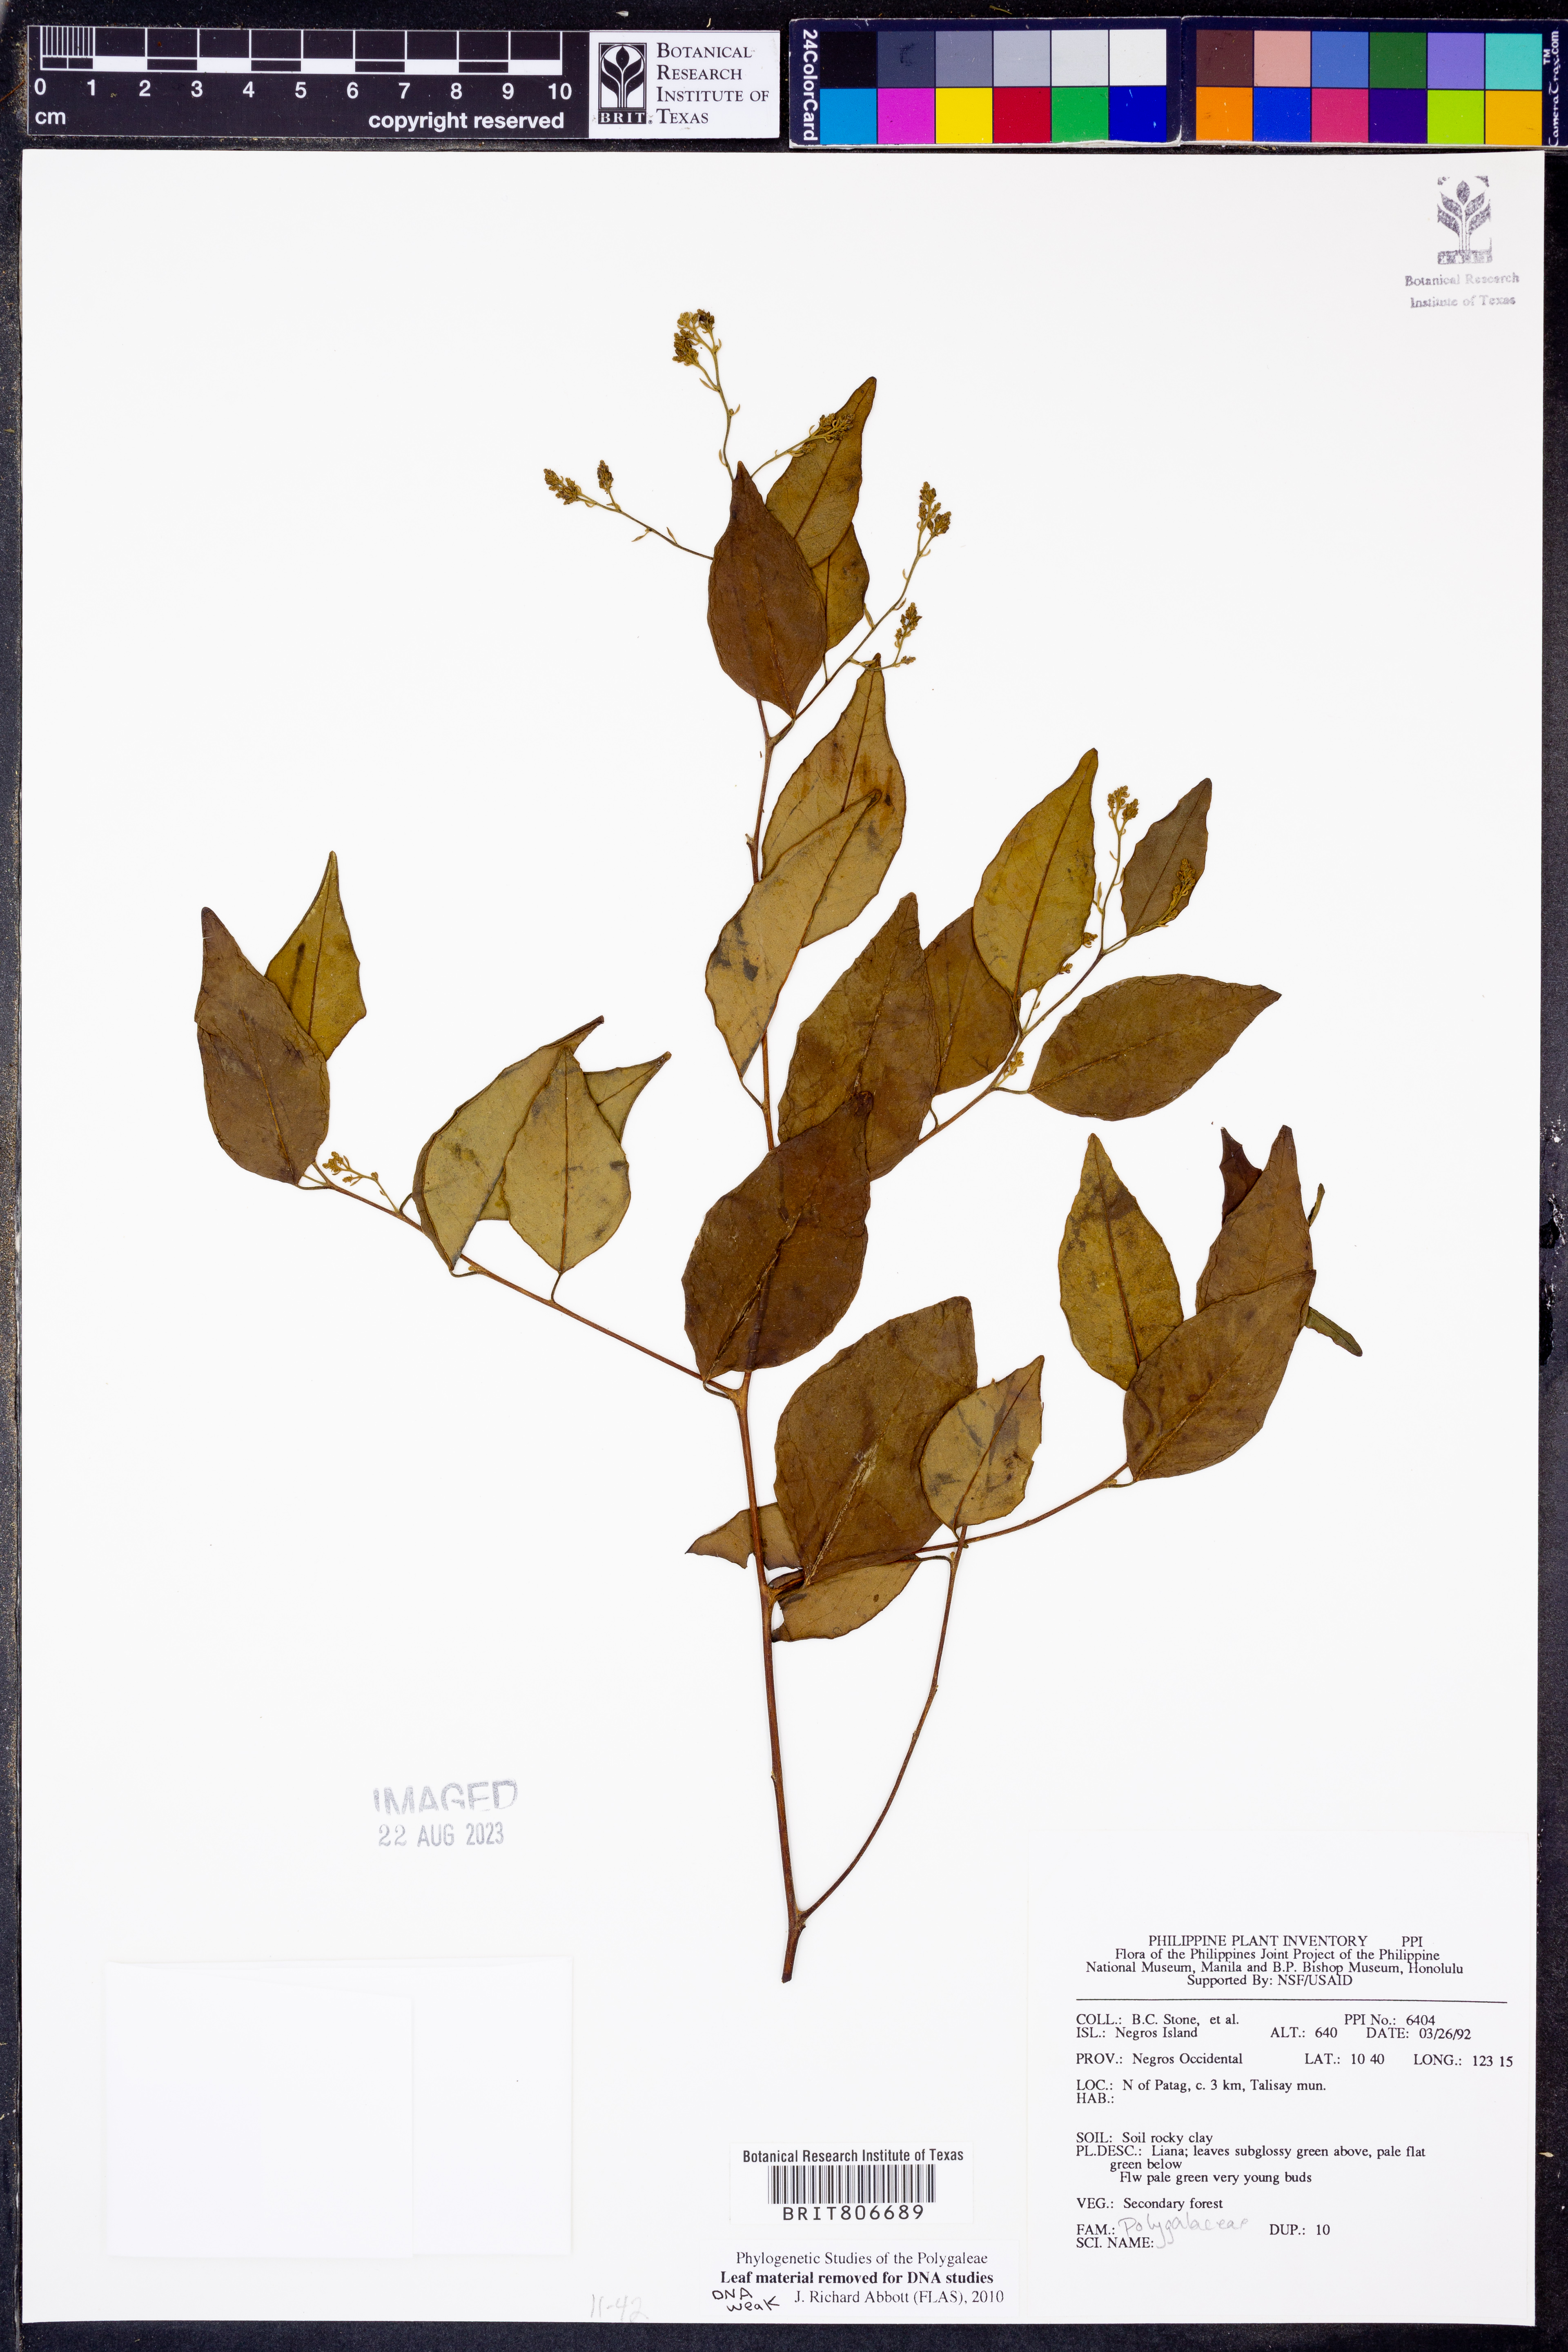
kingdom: Plantae
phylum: Tracheophyta
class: Magnoliopsida
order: Fabales
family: Polygalaceae
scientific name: Polygalaceae
